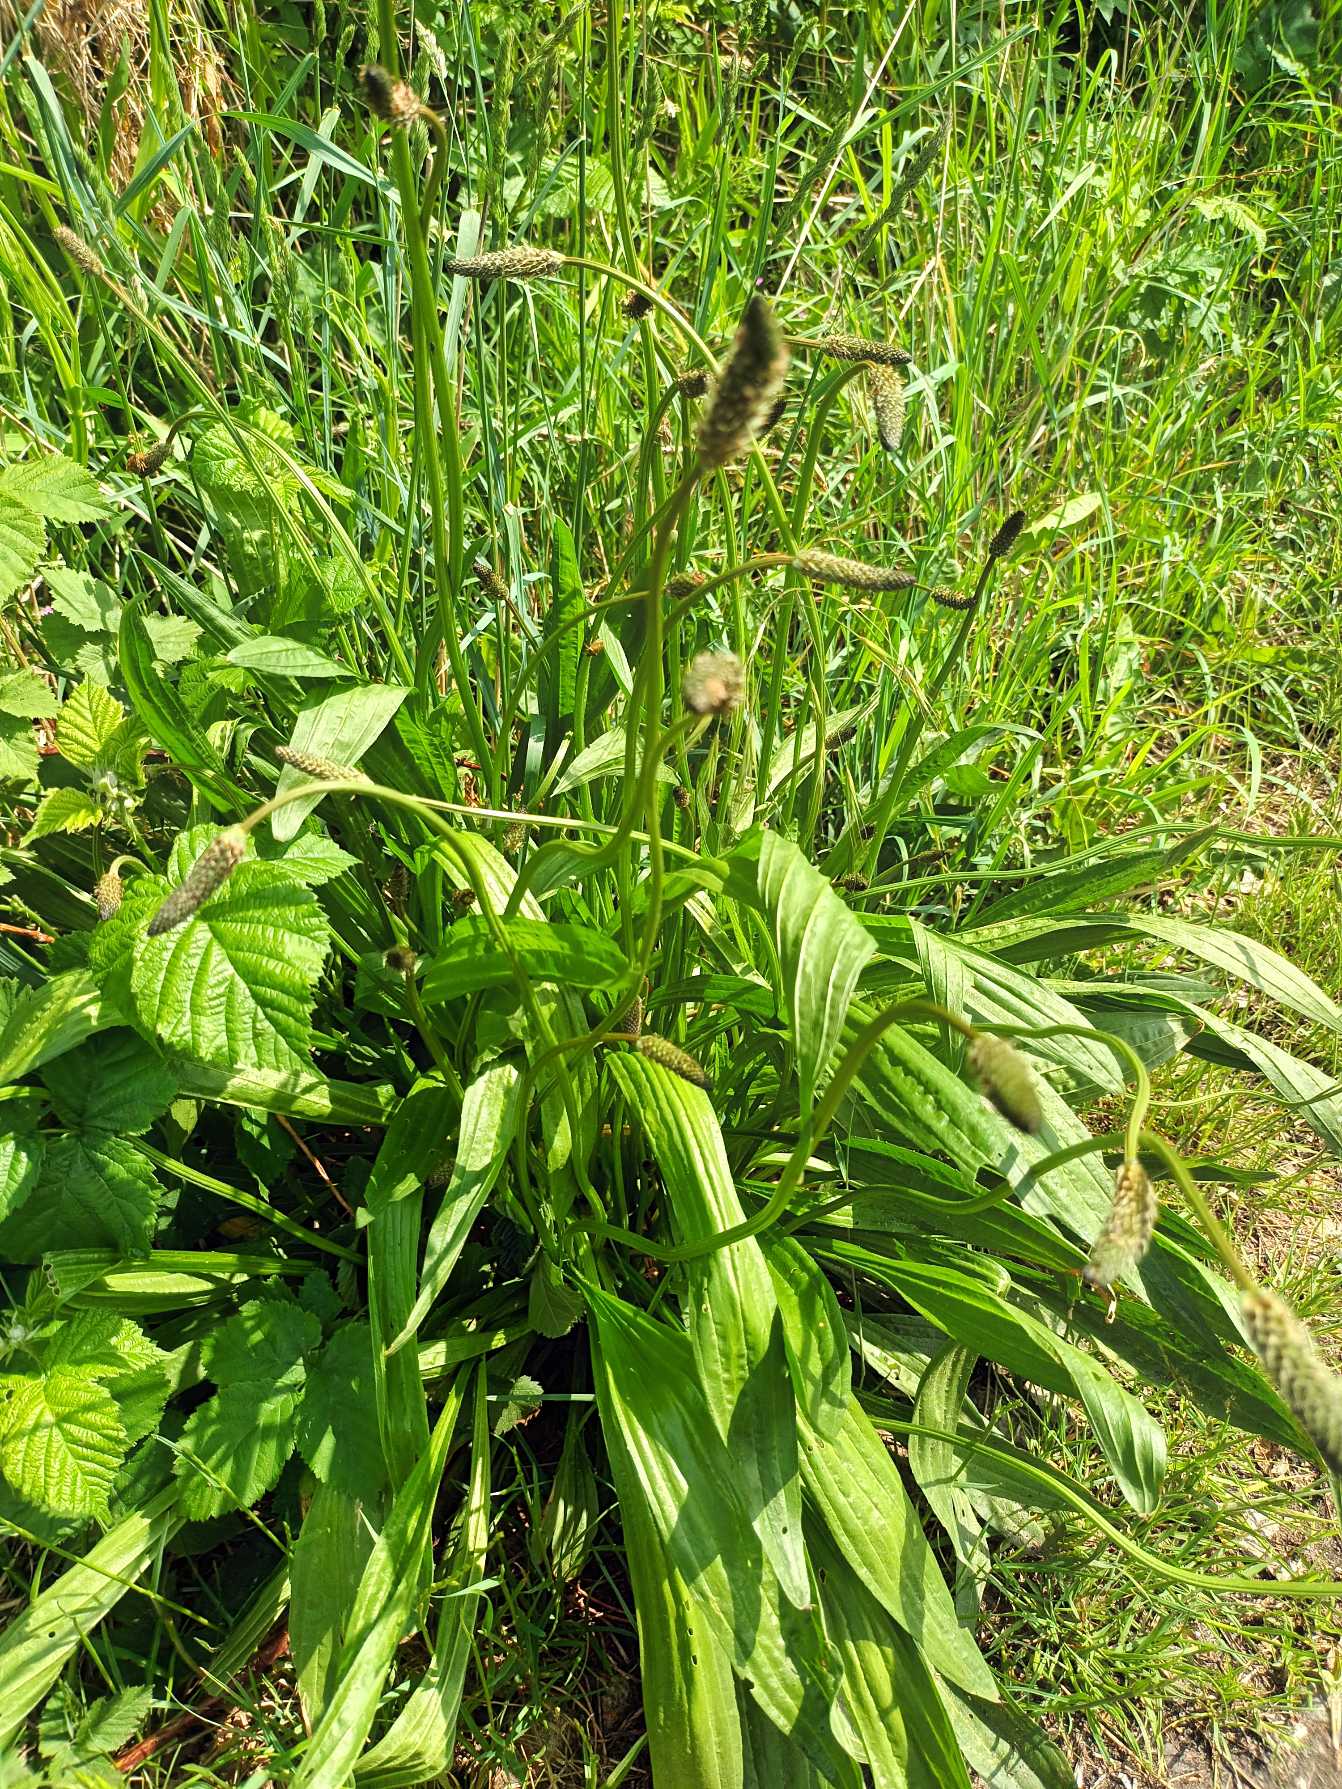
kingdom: Plantae
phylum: Tracheophyta
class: Magnoliopsida
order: Lamiales
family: Plantaginaceae
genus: Plantago
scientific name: Plantago lanceolata
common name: Lancet-vejbred
